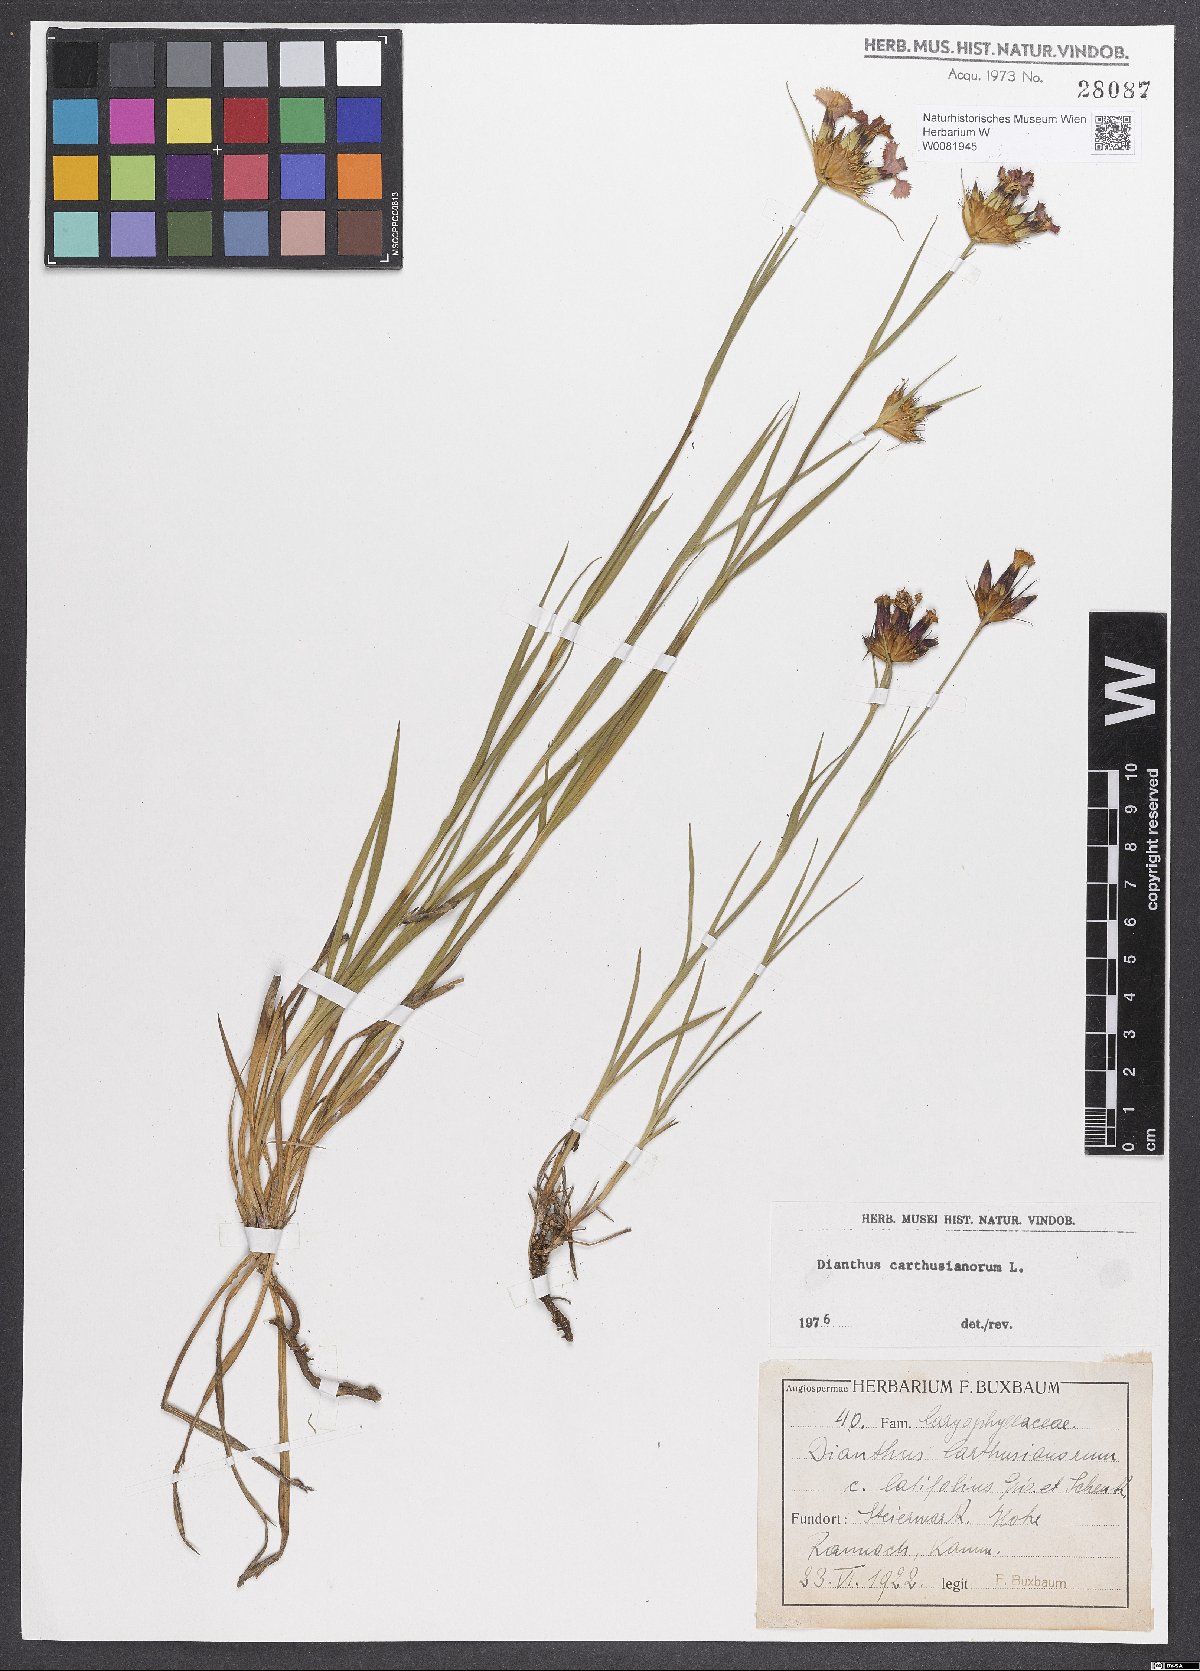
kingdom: Plantae
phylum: Tracheophyta
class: Magnoliopsida
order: Caryophyllales
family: Caryophyllaceae
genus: Dianthus
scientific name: Dianthus carthusianorum
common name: Carthusian pink
